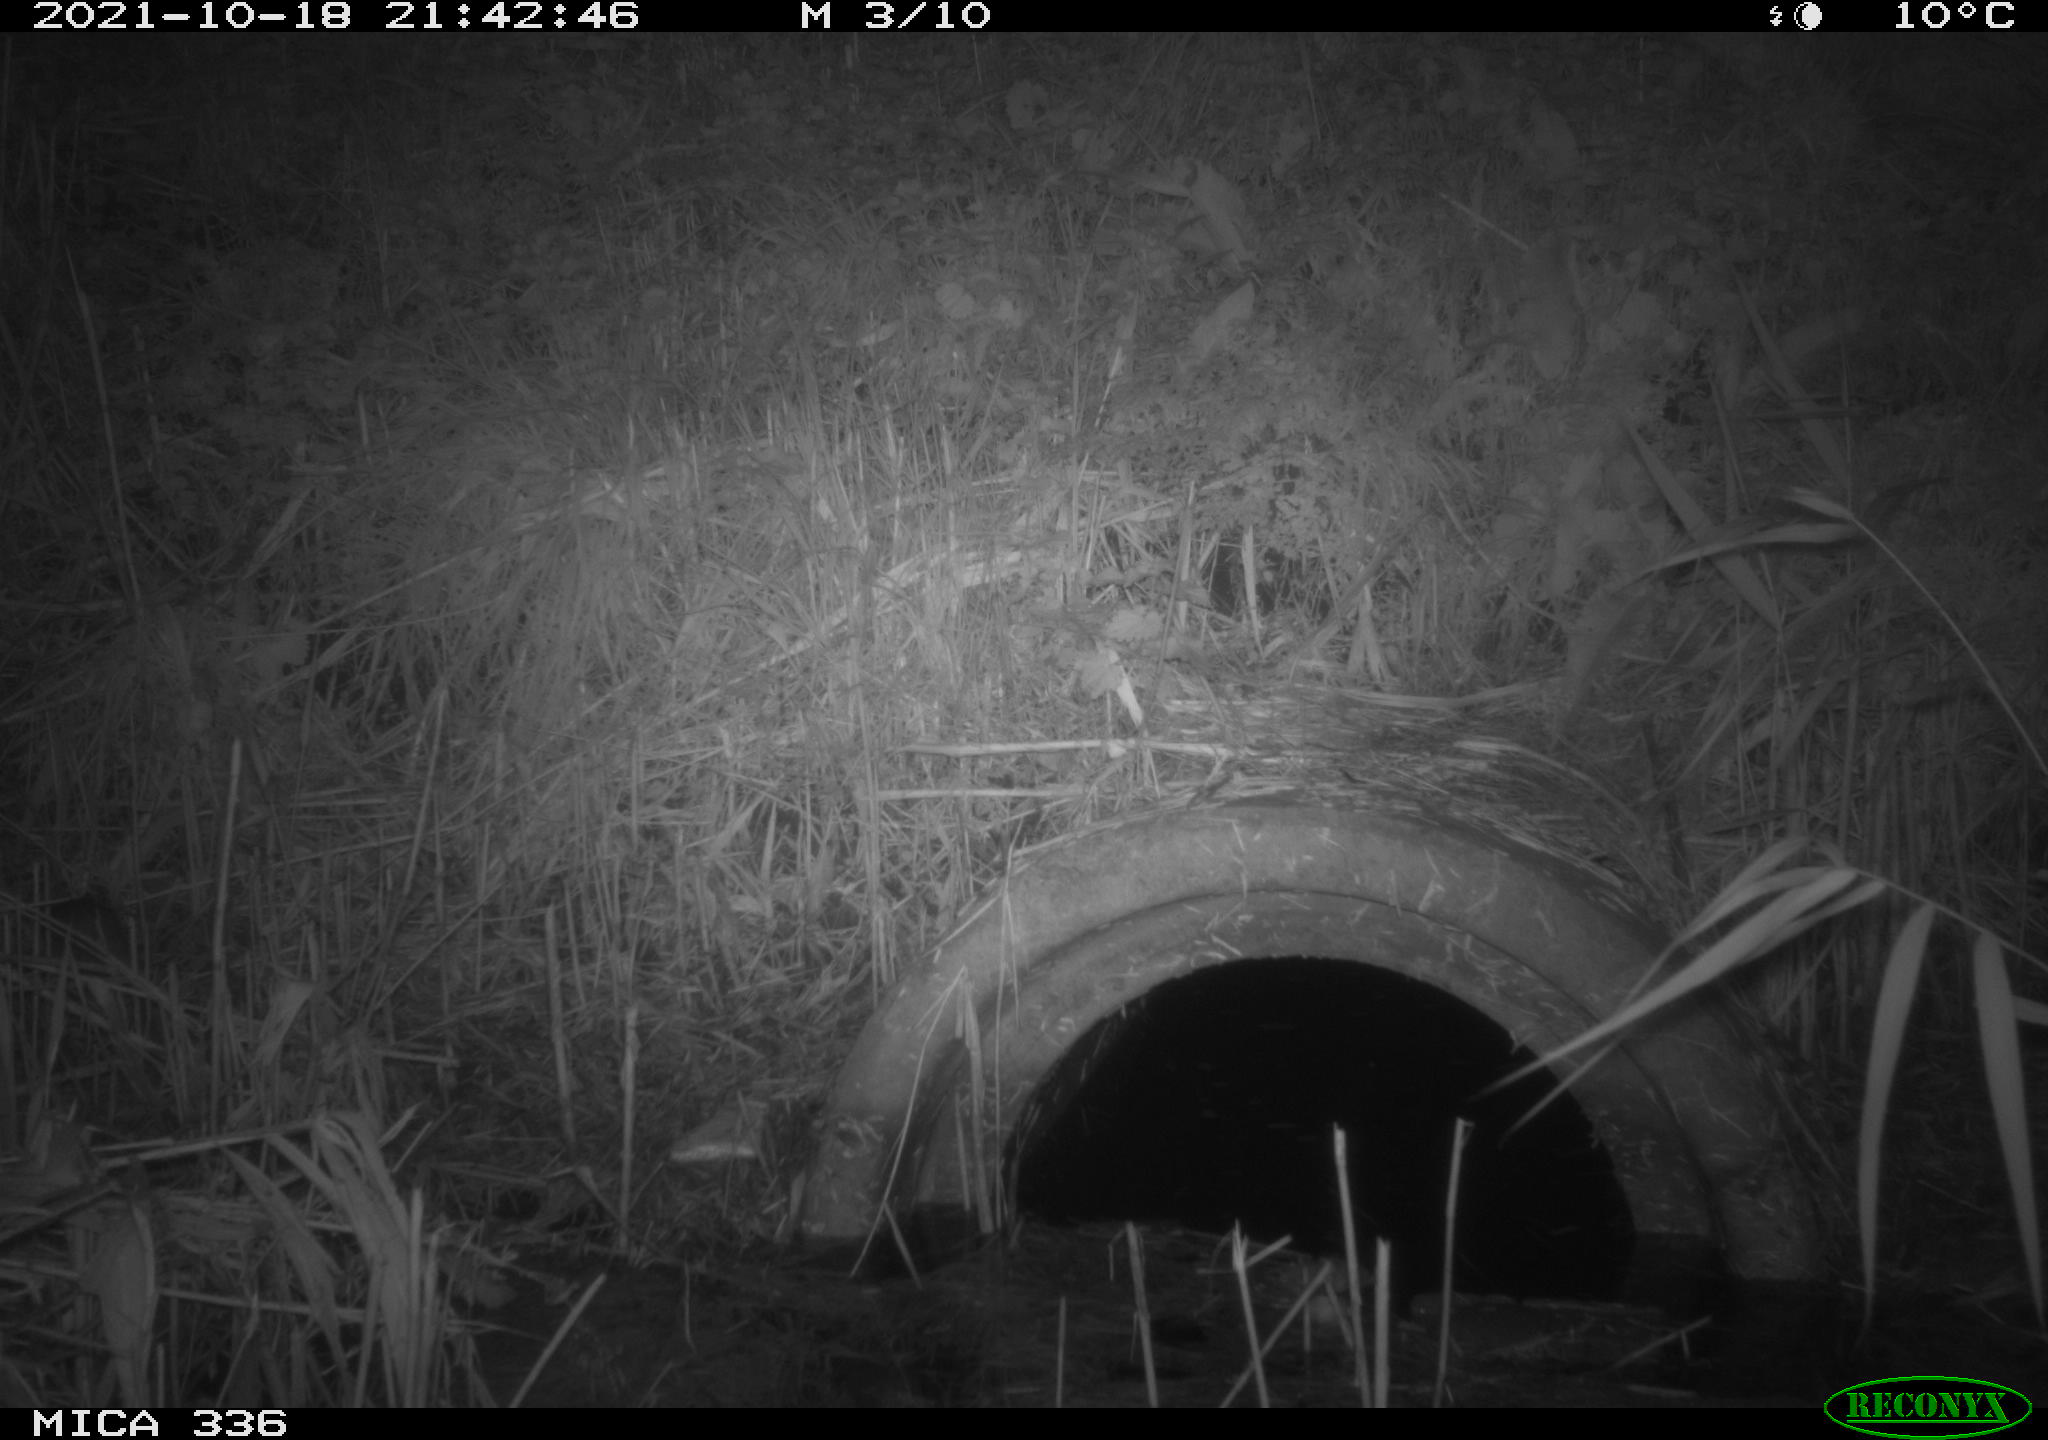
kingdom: Animalia
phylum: Chordata
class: Mammalia
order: Rodentia
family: Muridae
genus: Rattus
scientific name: Rattus norvegicus
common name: Brown rat
